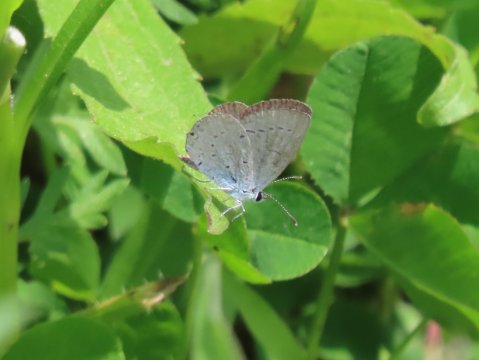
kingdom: Animalia
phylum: Arthropoda
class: Insecta
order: Lepidoptera
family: Lycaenidae
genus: Elkalyce
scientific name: Elkalyce comyntas
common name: Eastern Tailed-Blue
